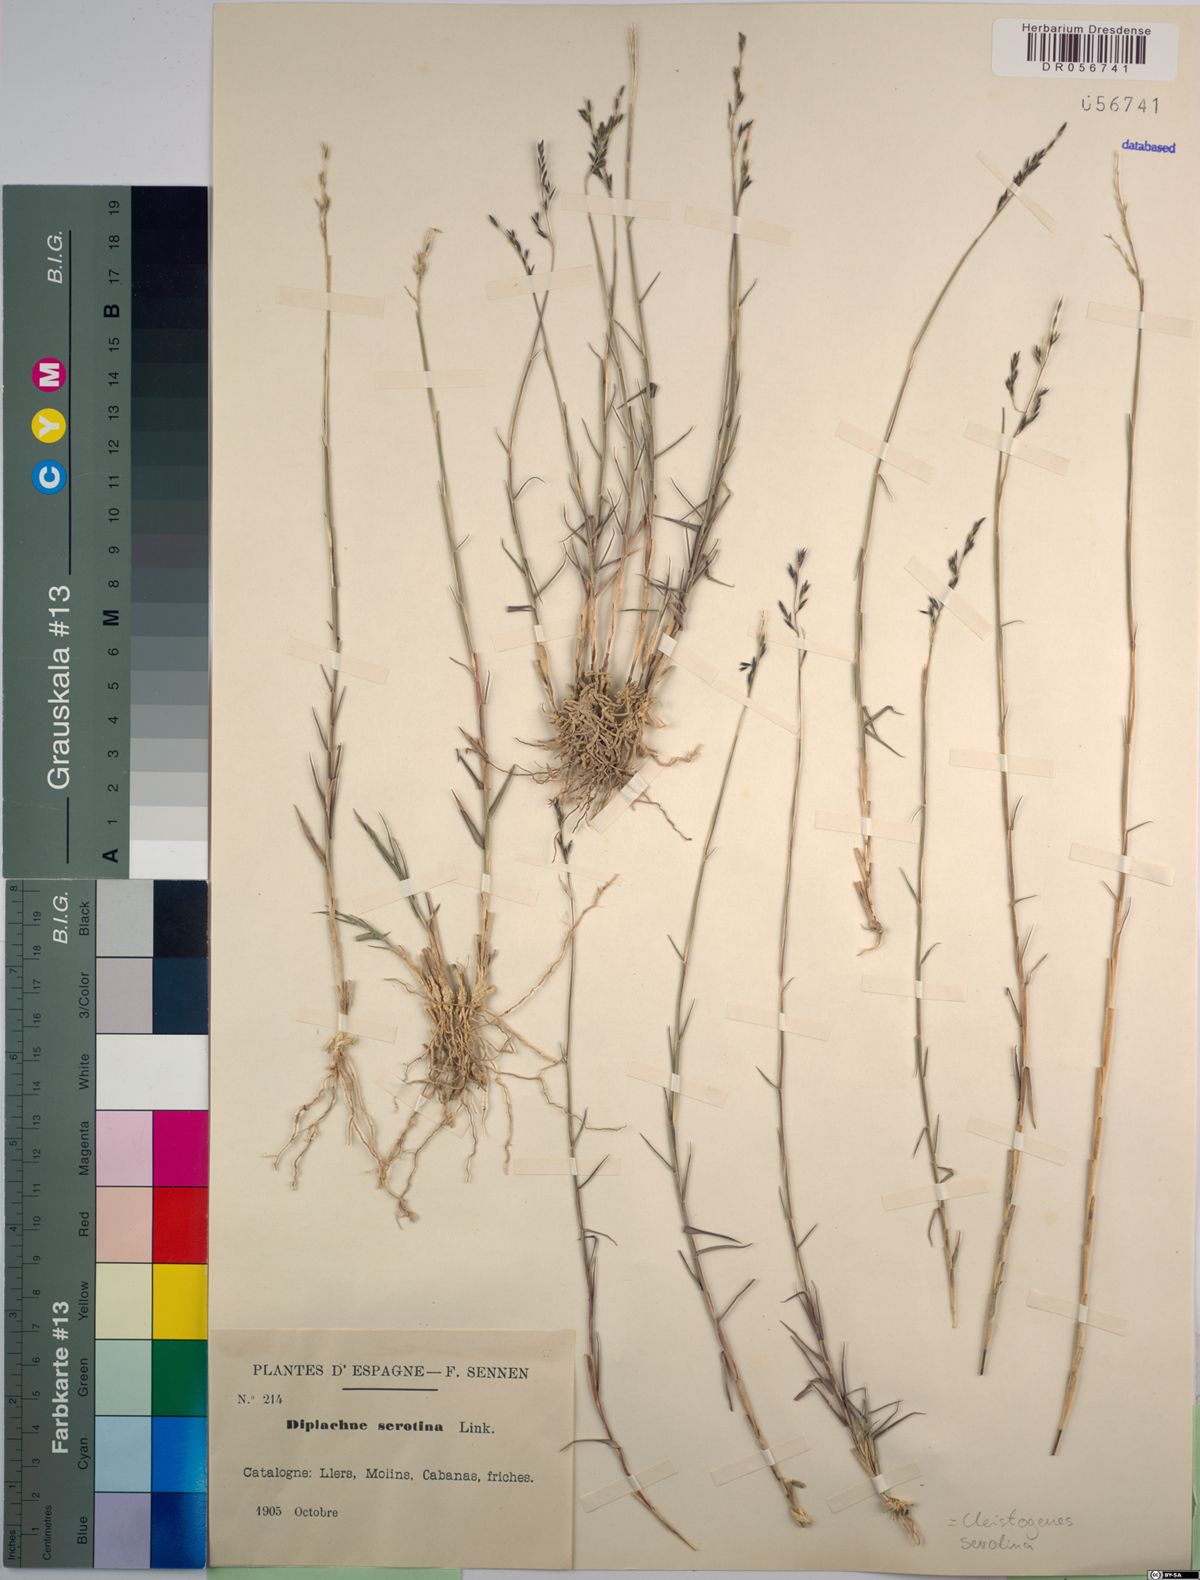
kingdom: Plantae
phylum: Tracheophyta
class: Liliopsida
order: Poales
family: Poaceae
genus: Cleistogenes
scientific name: Cleistogenes serotina
